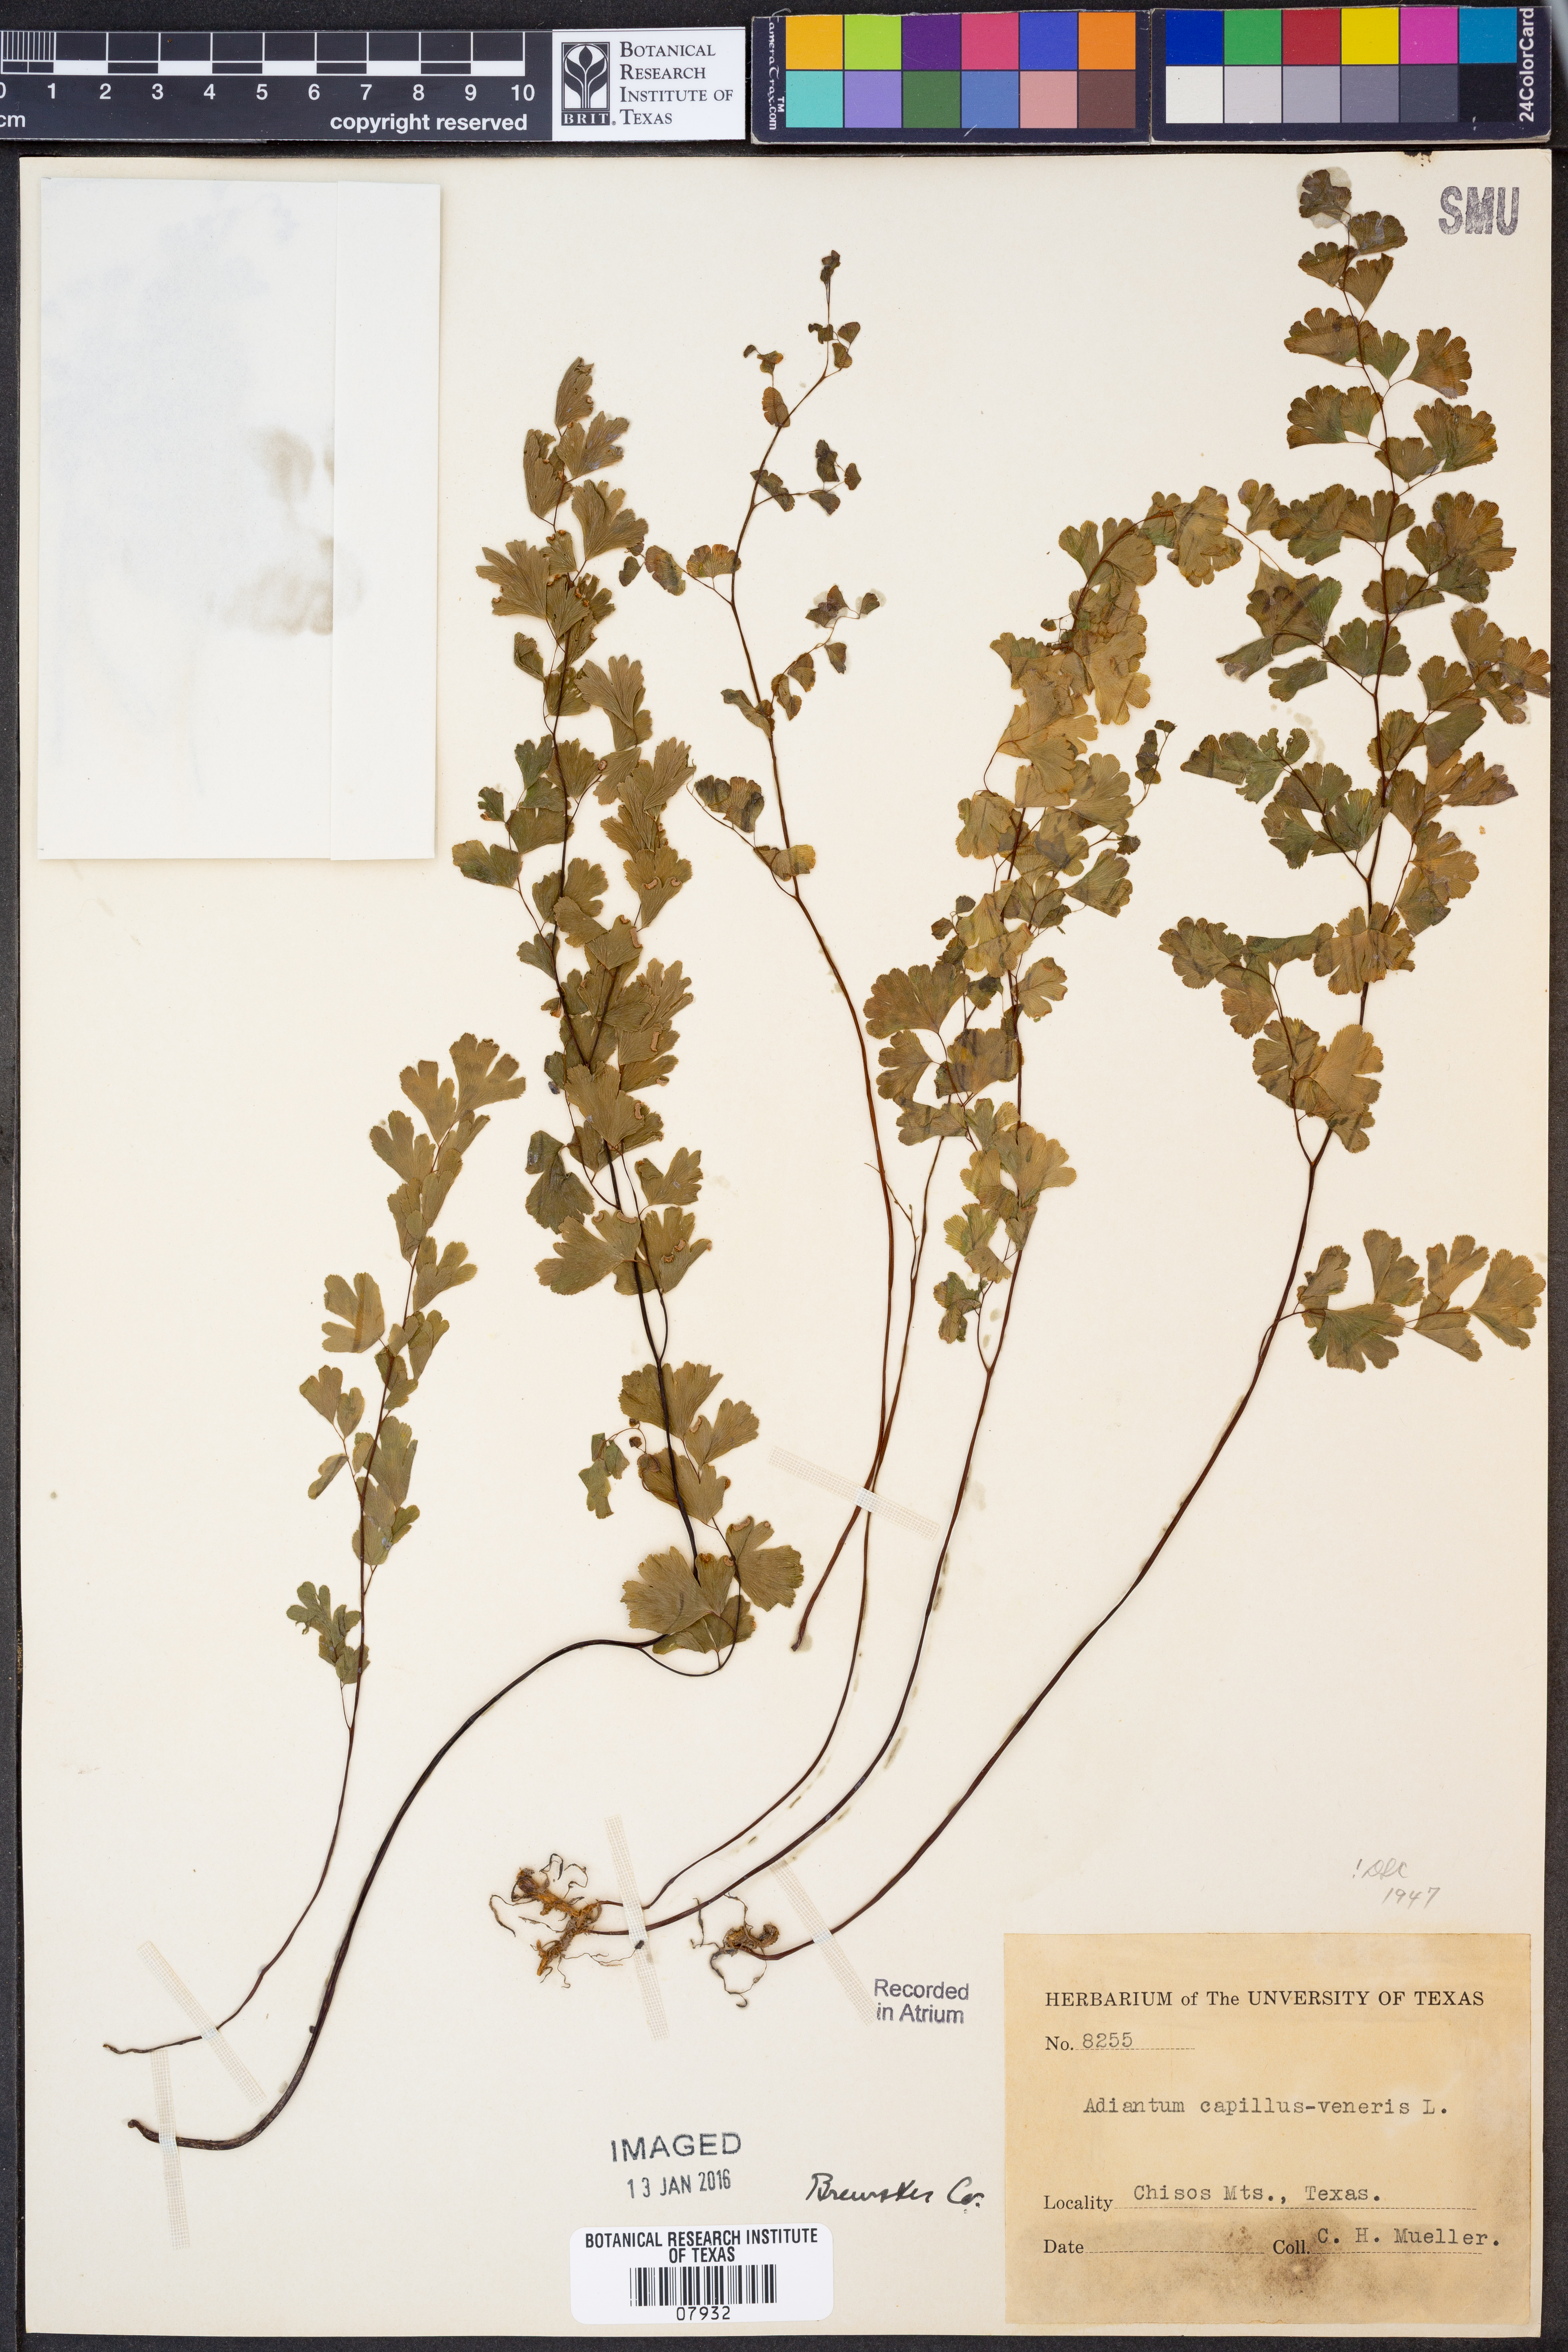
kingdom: Plantae
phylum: Tracheophyta
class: Polypodiopsida
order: Polypodiales
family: Pteridaceae
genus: Adiantum
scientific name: Adiantum capillus-veneris
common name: Maidenhair fern
